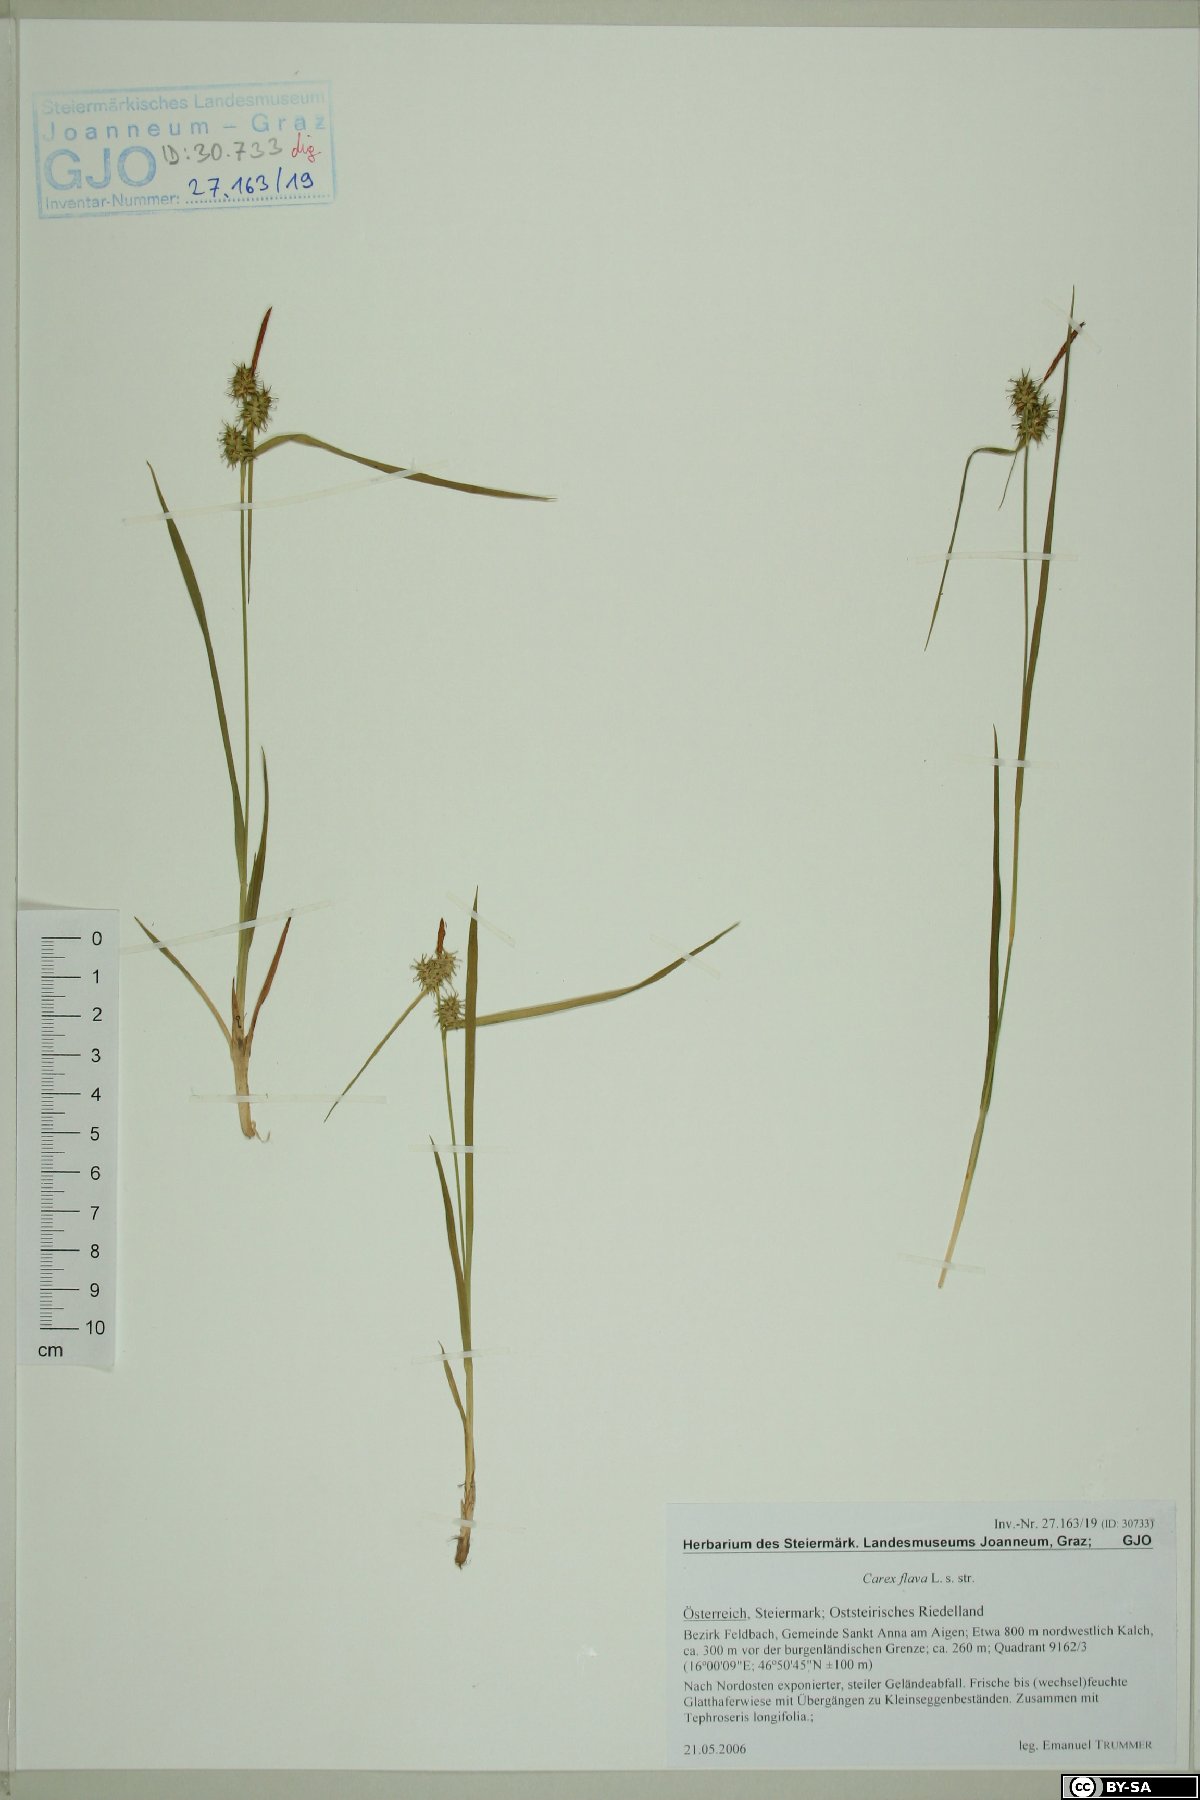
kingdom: Plantae
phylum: Tracheophyta
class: Liliopsida
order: Poales
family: Cyperaceae
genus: Carex
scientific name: Carex flava
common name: Large yellow-sedge
